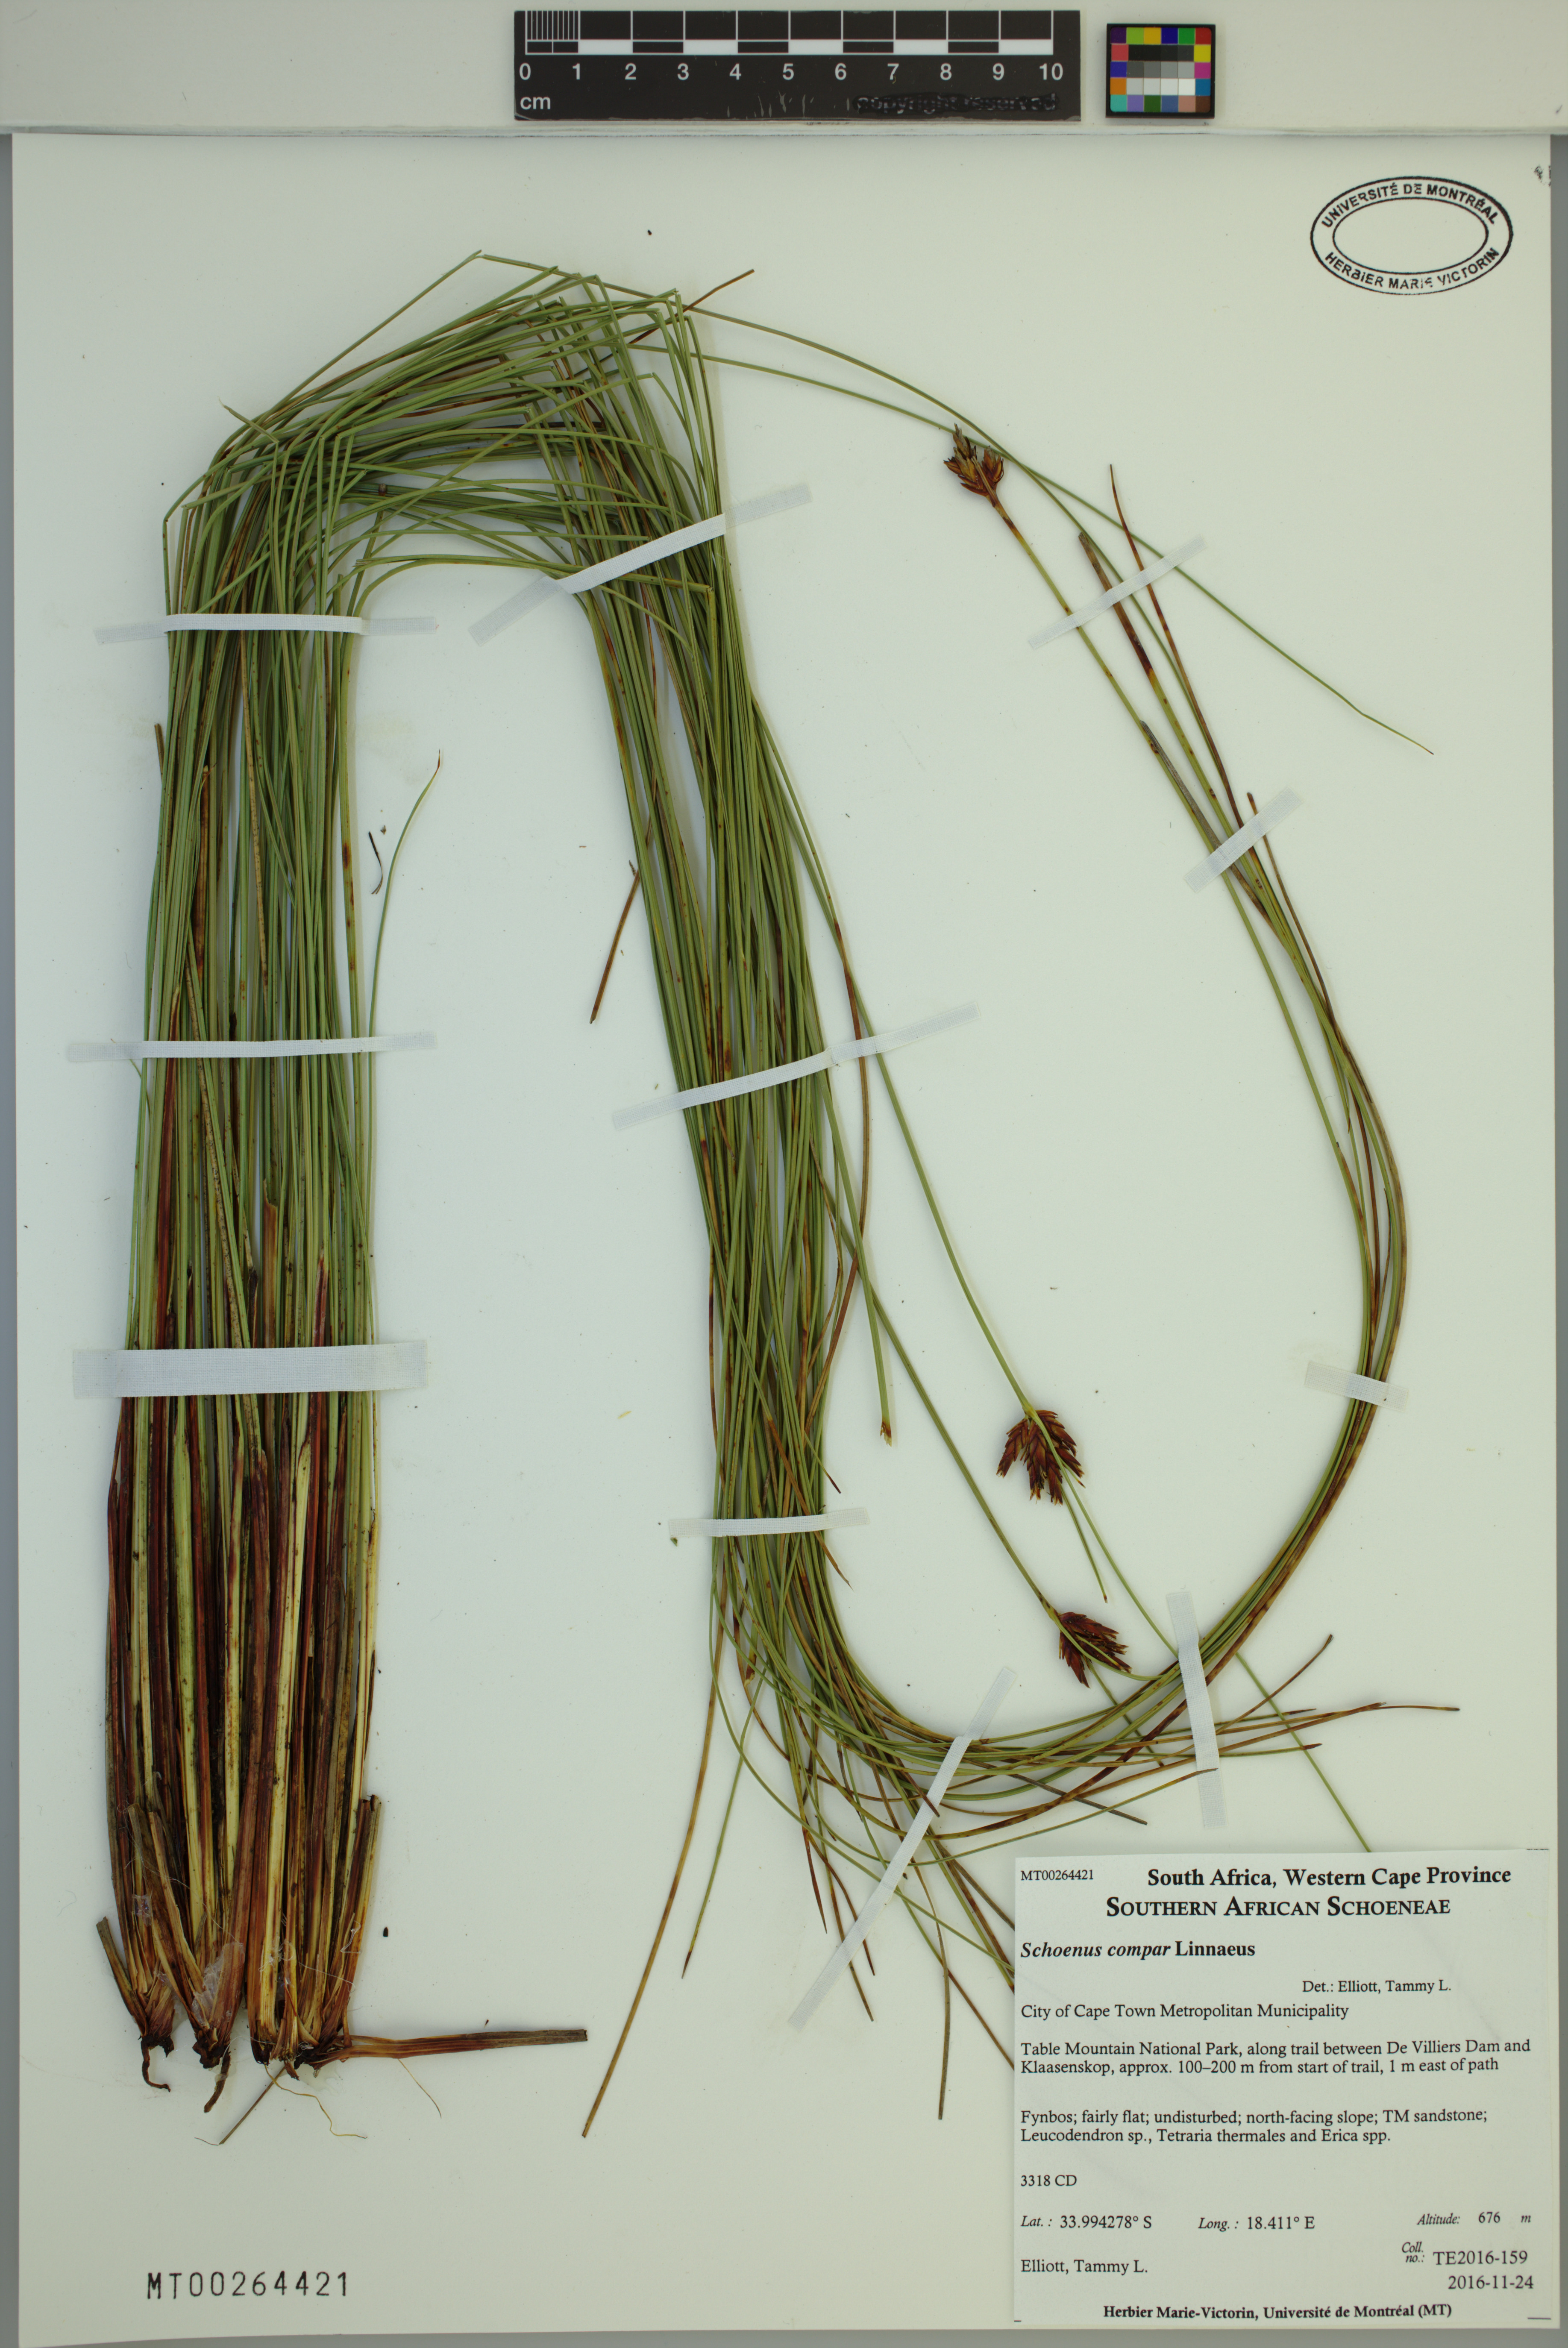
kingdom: Plantae
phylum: Tracheophyta
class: Liliopsida
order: Poales
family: Cyperaceae
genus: Schoenus
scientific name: Schoenus compar
